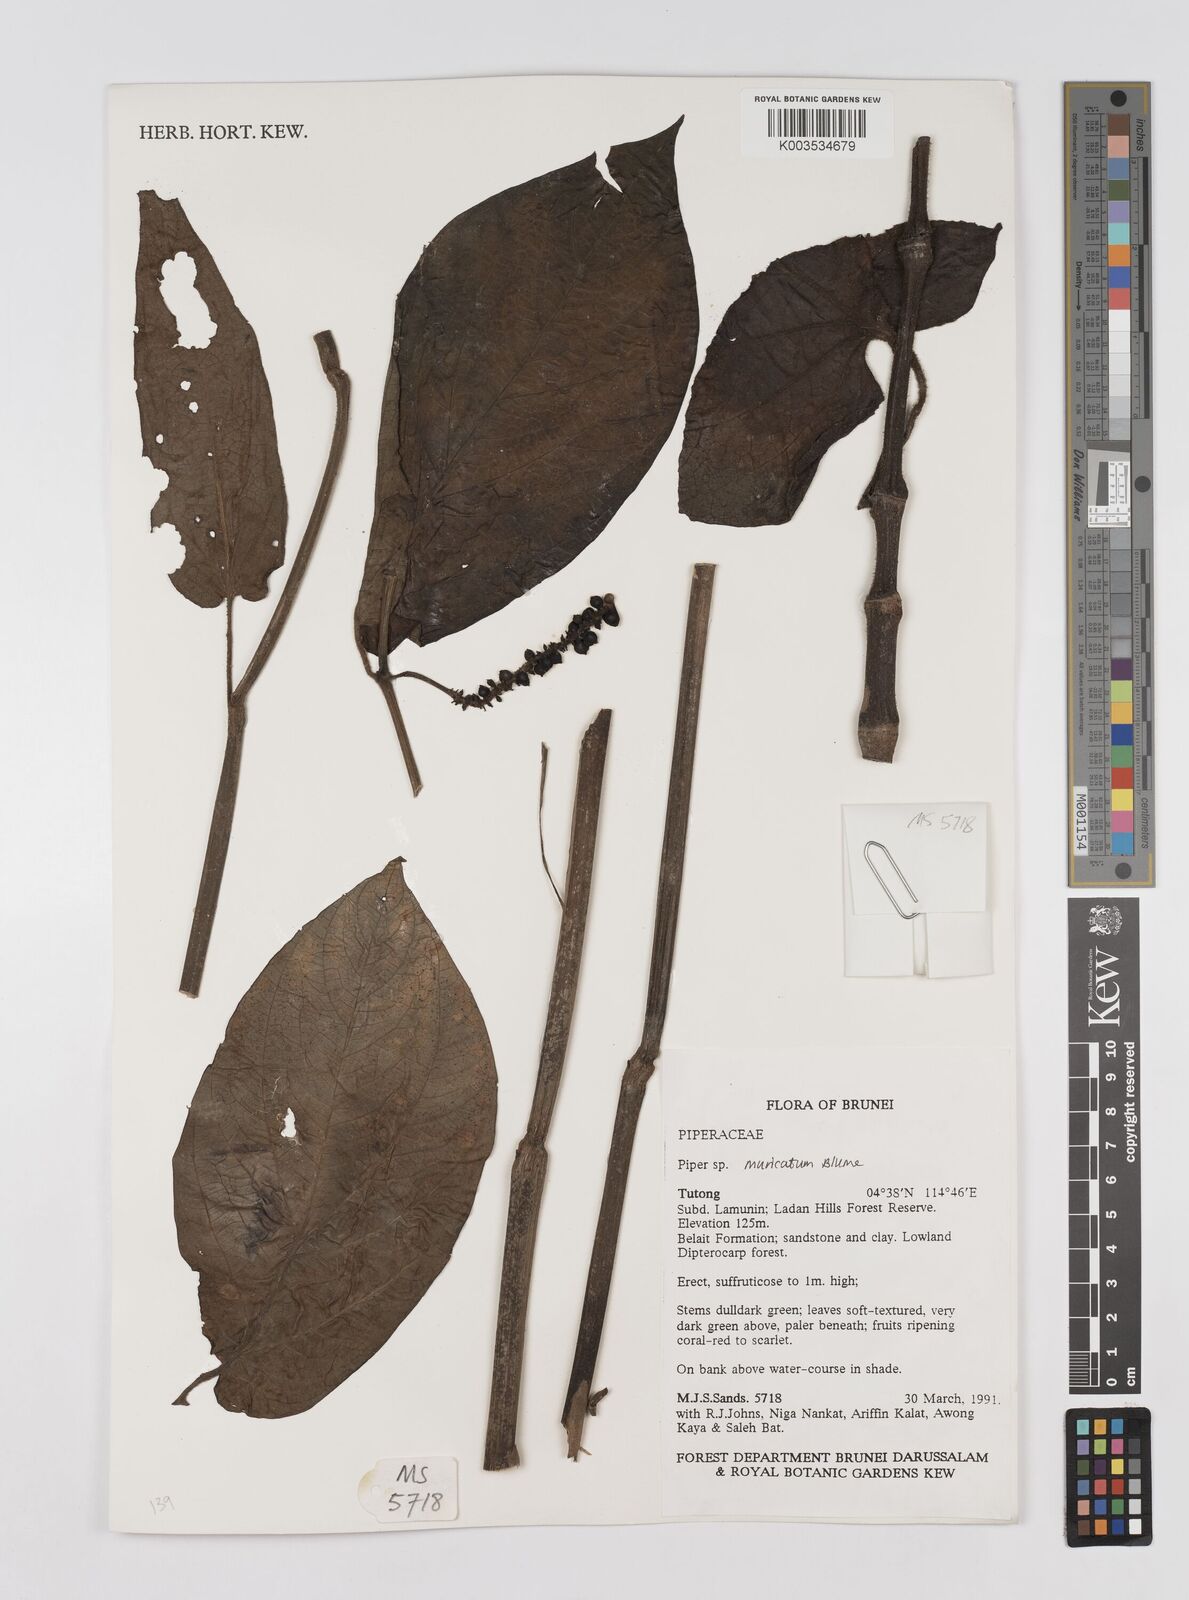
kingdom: Plantae
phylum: Tracheophyta
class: Magnoliopsida
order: Piperales
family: Piperaceae
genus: Piper
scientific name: Piper muricatum
